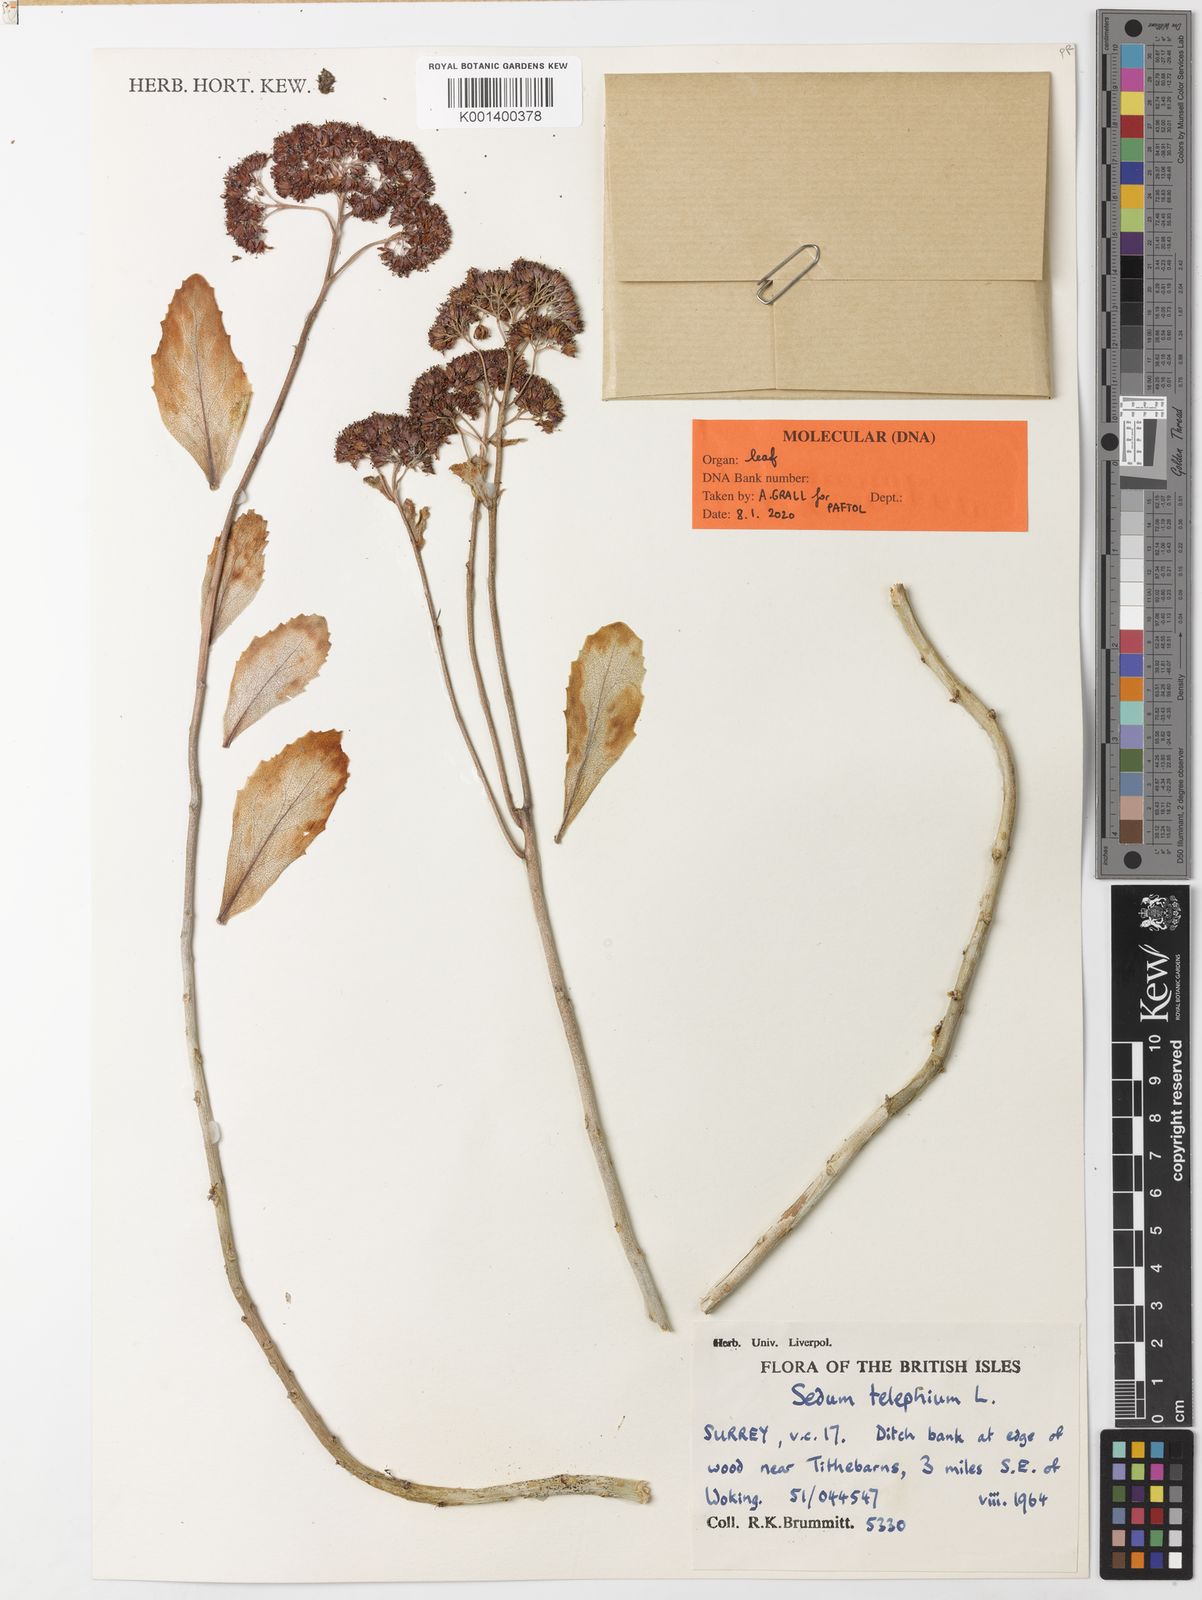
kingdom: Plantae
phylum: Tracheophyta
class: Magnoliopsida
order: Saxifragales
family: Crassulaceae
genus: Hylotelephium
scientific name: Hylotelephium telephium
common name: Live-forever
